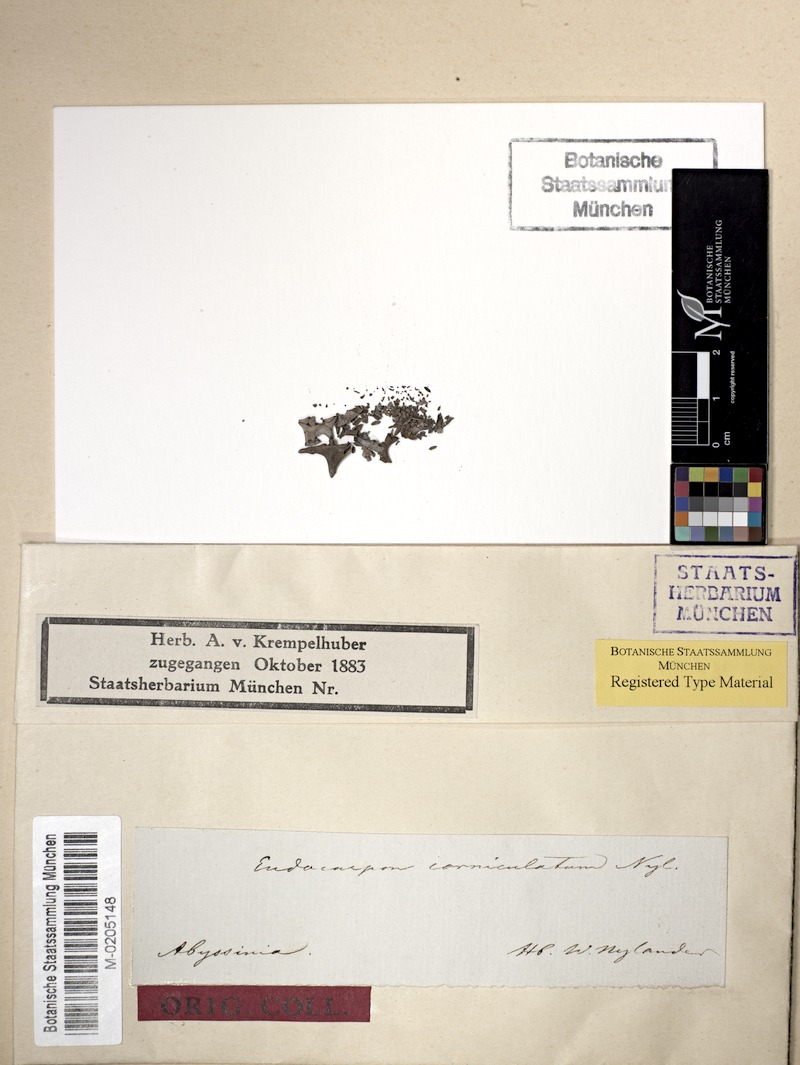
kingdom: Fungi
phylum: Ascomycota
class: Eurotiomycetes
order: Verrucariales
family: Verrucariaceae
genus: Dermatocarpon
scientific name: Dermatocarpon
